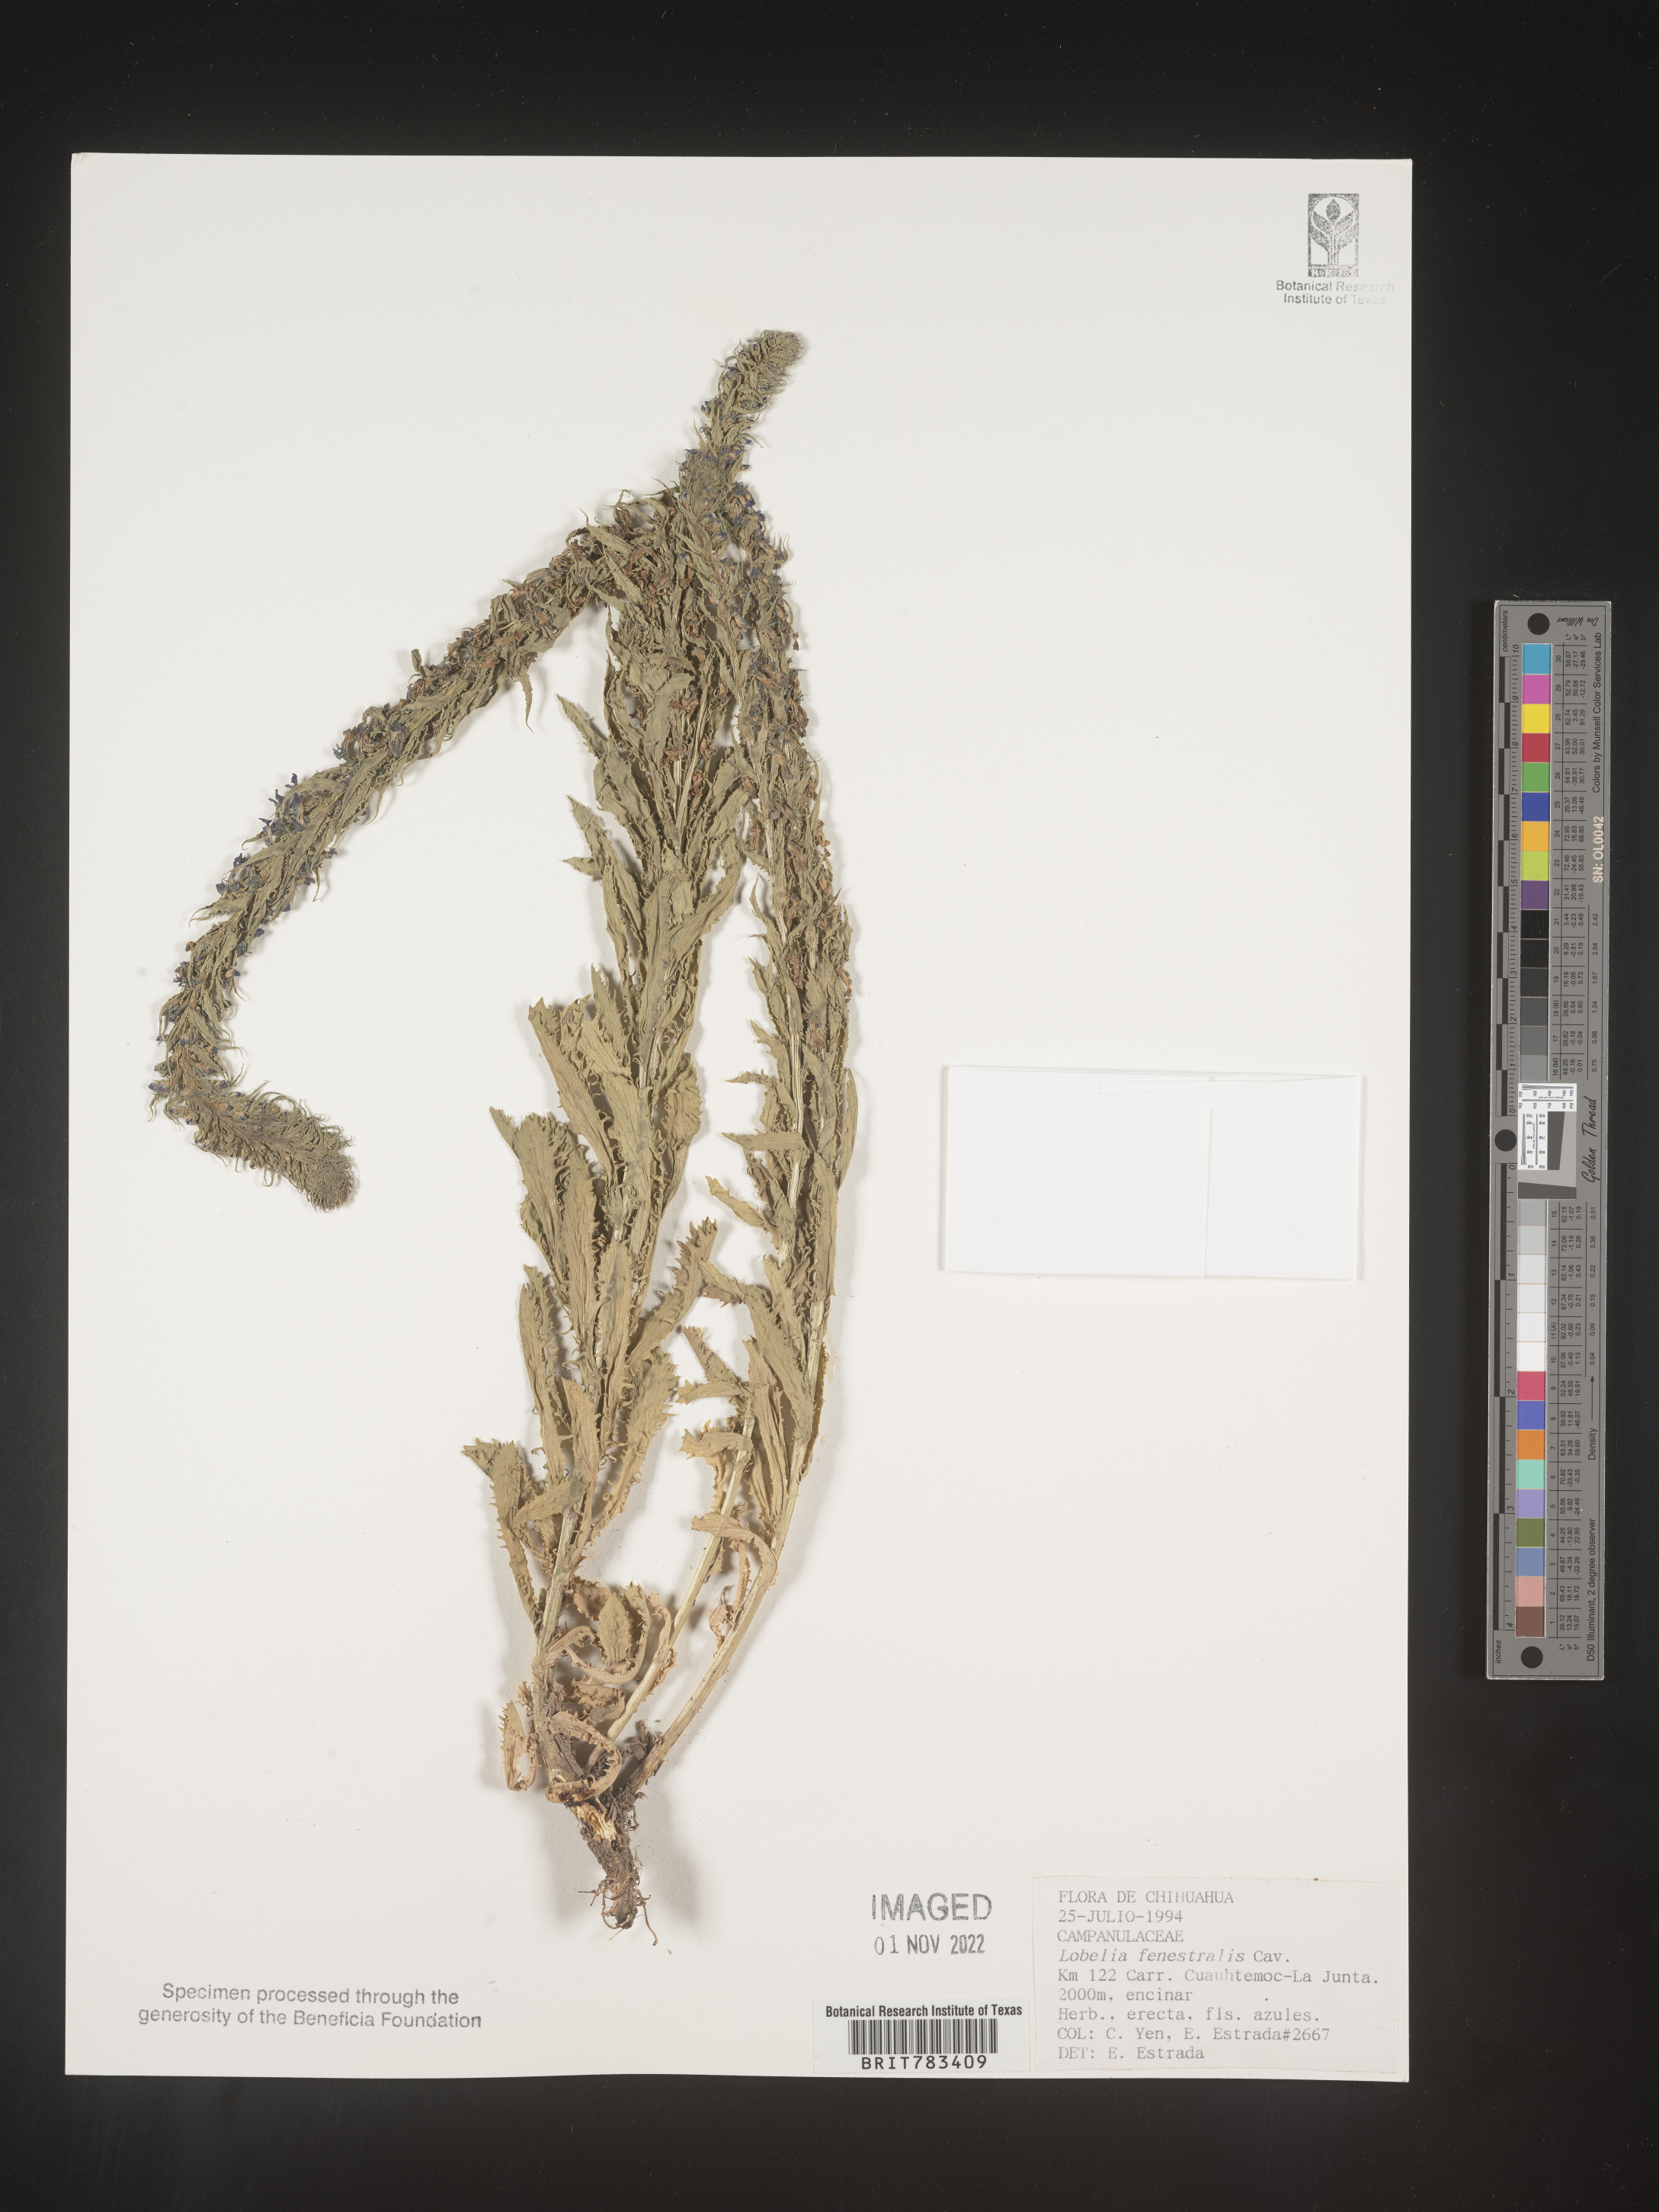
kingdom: Plantae
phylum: Tracheophyta
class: Magnoliopsida
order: Asterales
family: Campanulaceae
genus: Lobelia
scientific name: Lobelia
